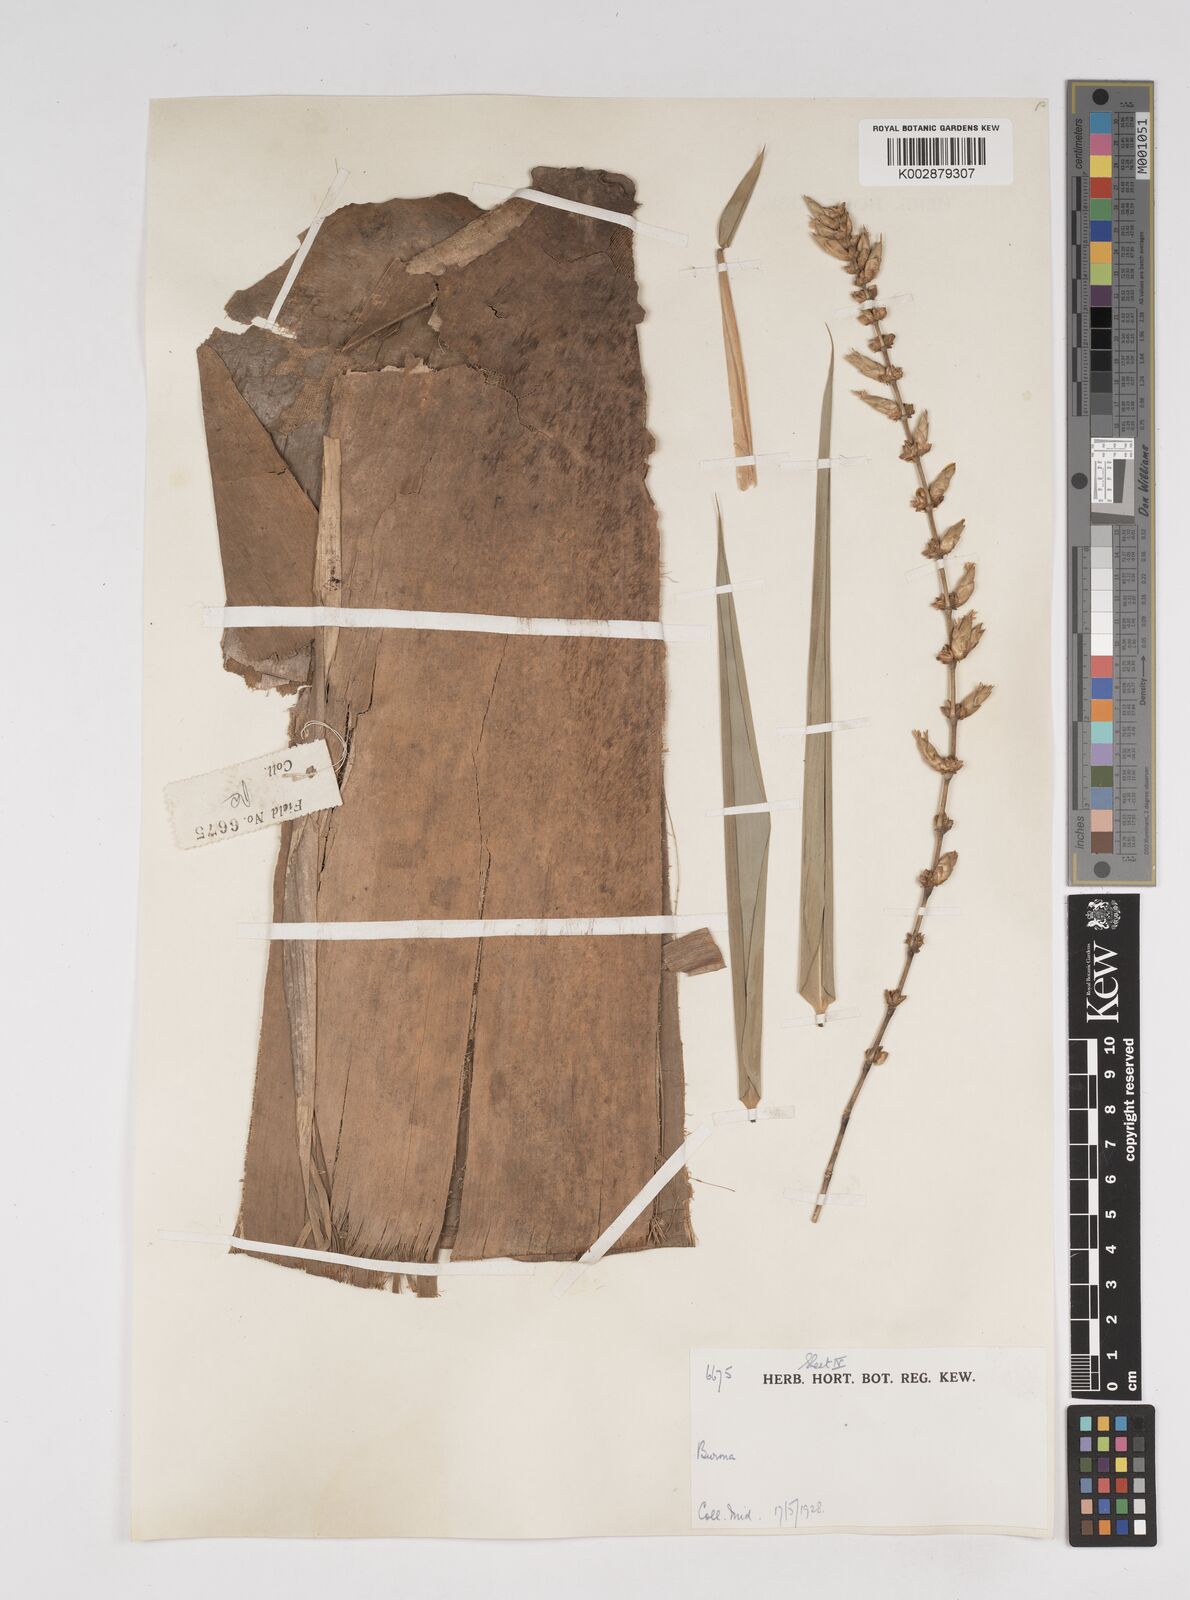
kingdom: Plantae
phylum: Tracheophyta
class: Liliopsida
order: Poales
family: Poaceae
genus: Dendrocalamus
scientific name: Dendrocalamus
